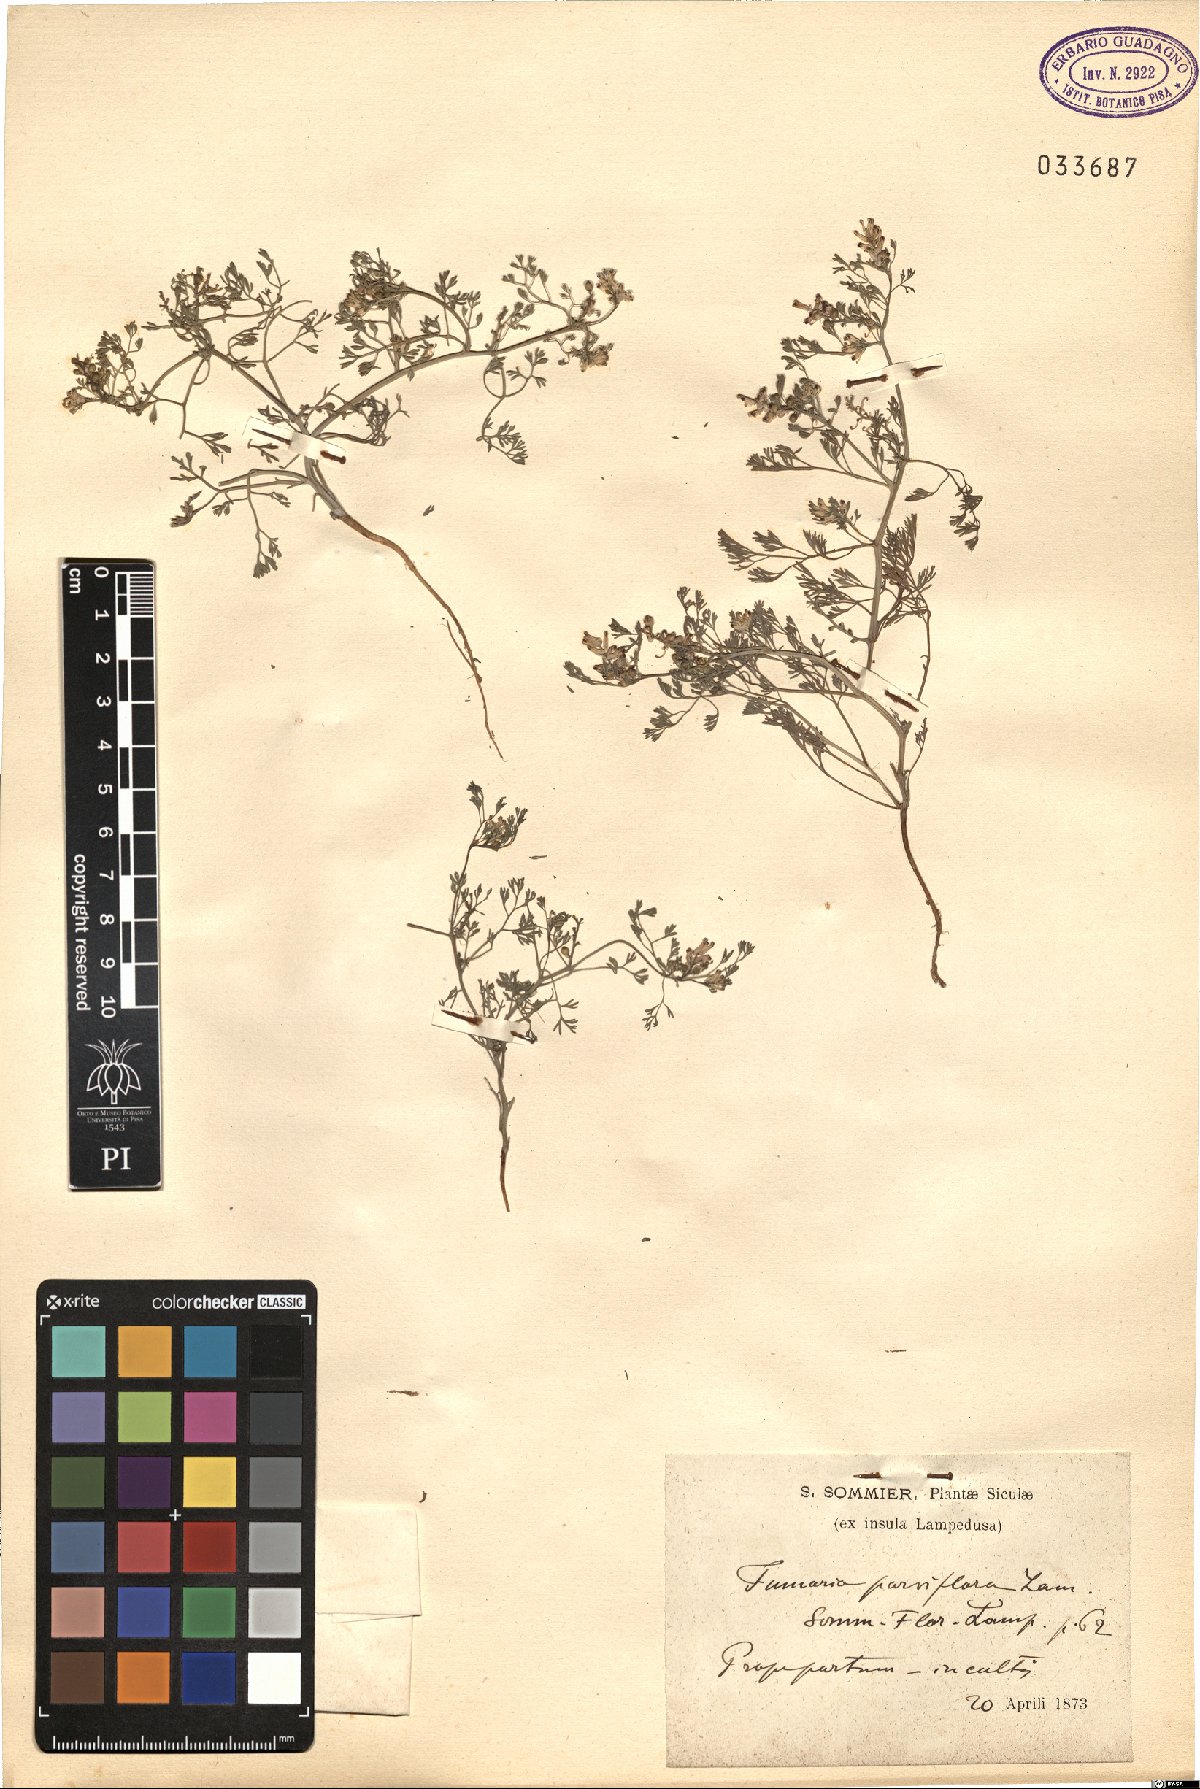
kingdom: Plantae
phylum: Tracheophyta
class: Magnoliopsida
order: Ranunculales
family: Papaveraceae
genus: Fumaria
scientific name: Fumaria parviflora
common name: Fine-leaved fumitory
